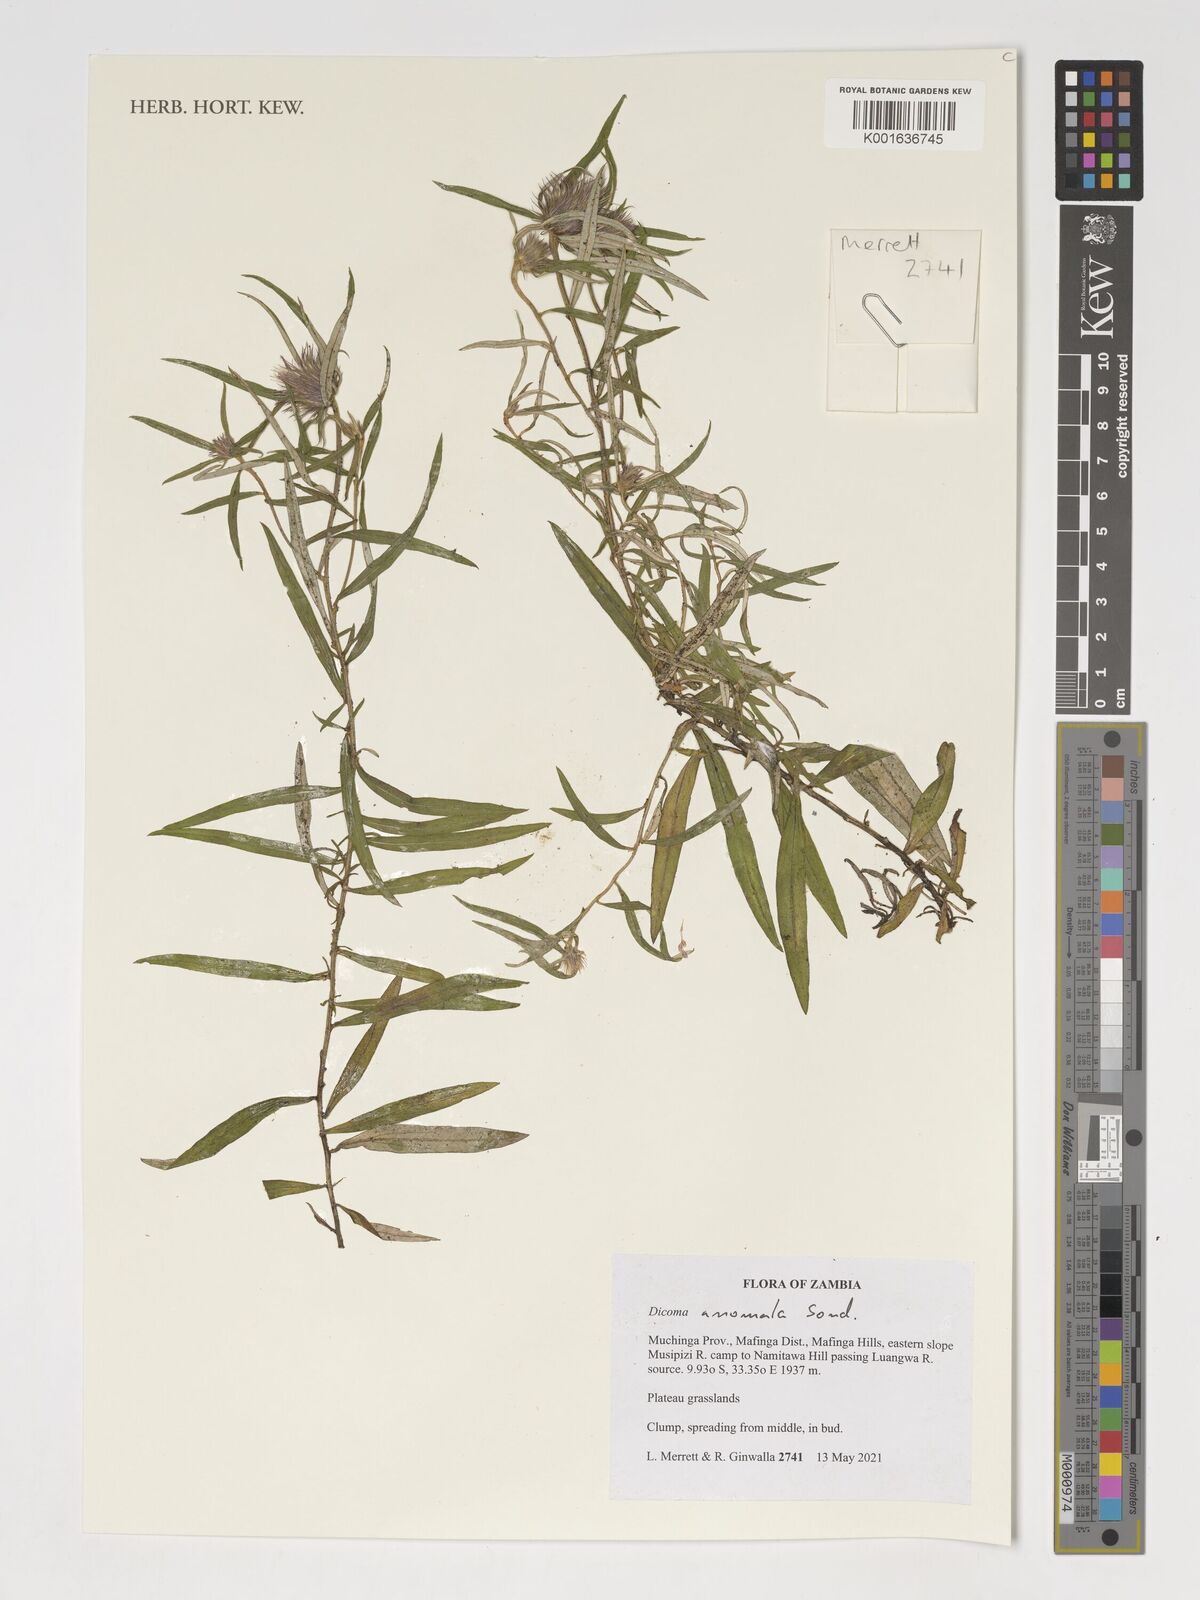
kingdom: Plantae
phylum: Tracheophyta
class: Magnoliopsida
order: Asterales
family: Asteraceae
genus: Dicoma
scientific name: Dicoma anomala
